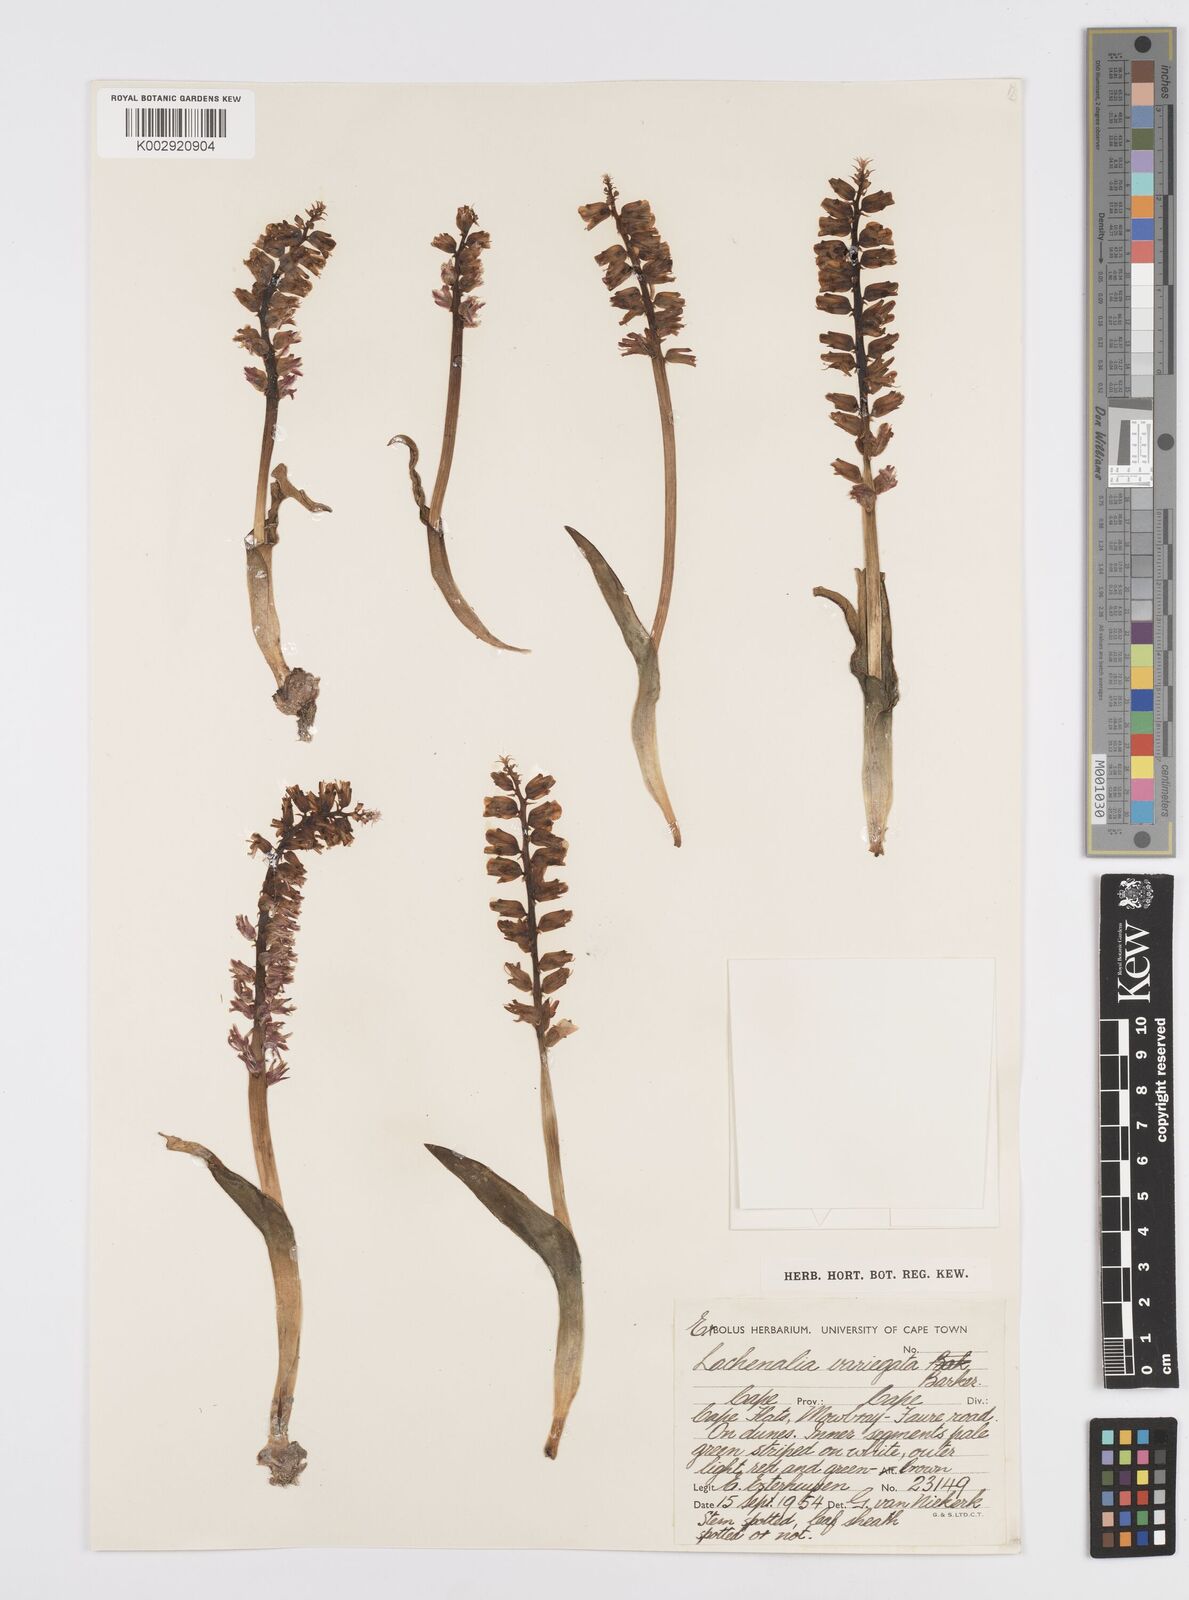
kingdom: Plantae
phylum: Tracheophyta
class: Liliopsida
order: Asparagales
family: Asparagaceae
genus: Lachenalia
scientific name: Lachenalia variegata
